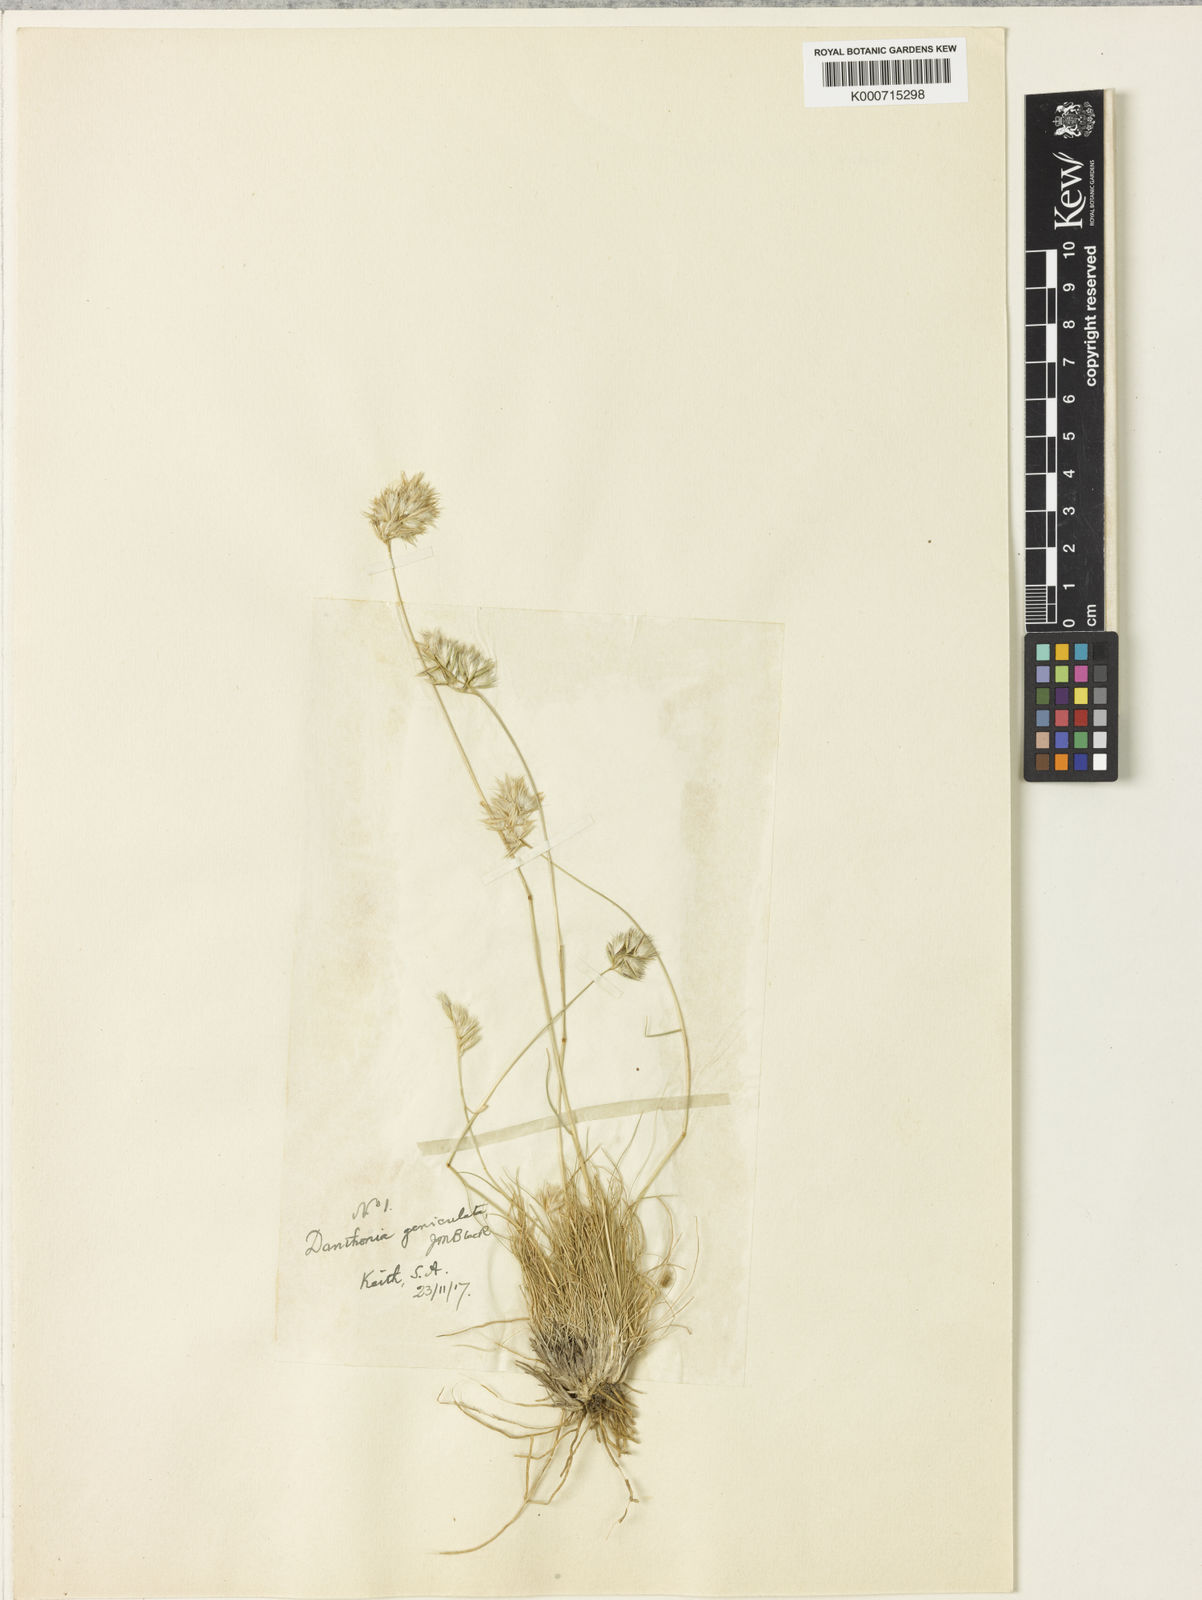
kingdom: Plantae
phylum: Tracheophyta
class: Liliopsida
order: Poales
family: Poaceae
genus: Rytidosperma
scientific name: Rytidosperma geniculatum
